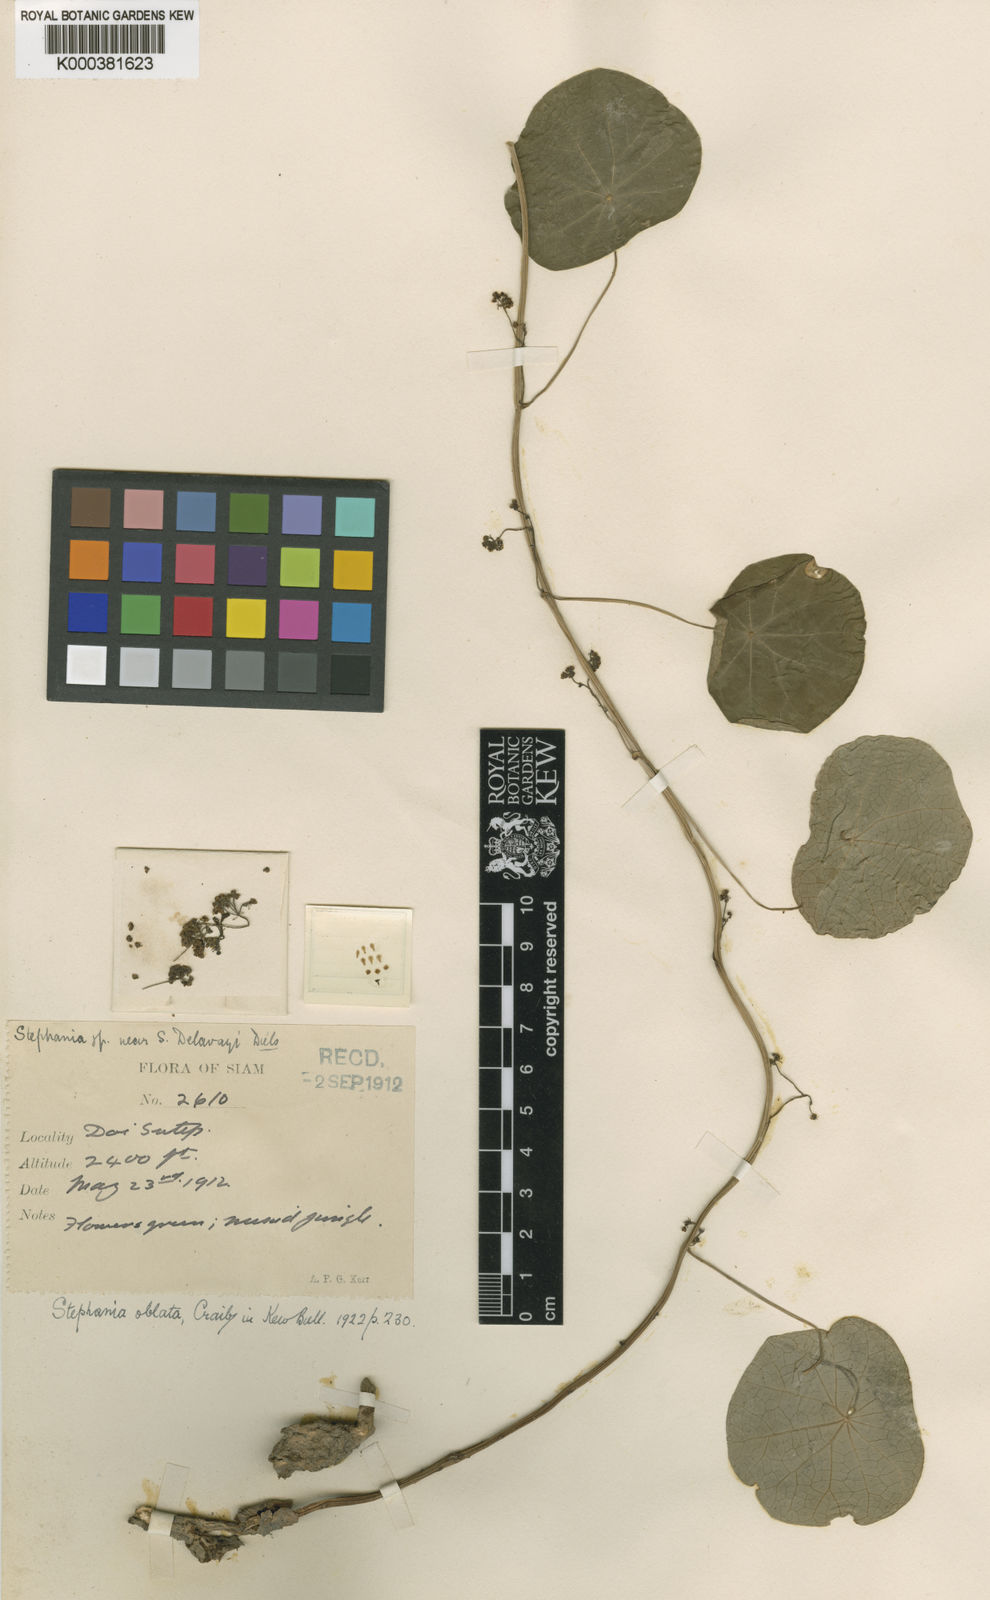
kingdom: Plantae
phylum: Tracheophyta
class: Magnoliopsida
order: Ranunculales
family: Menispermaceae
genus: Stephania
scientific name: Stephania oblata
